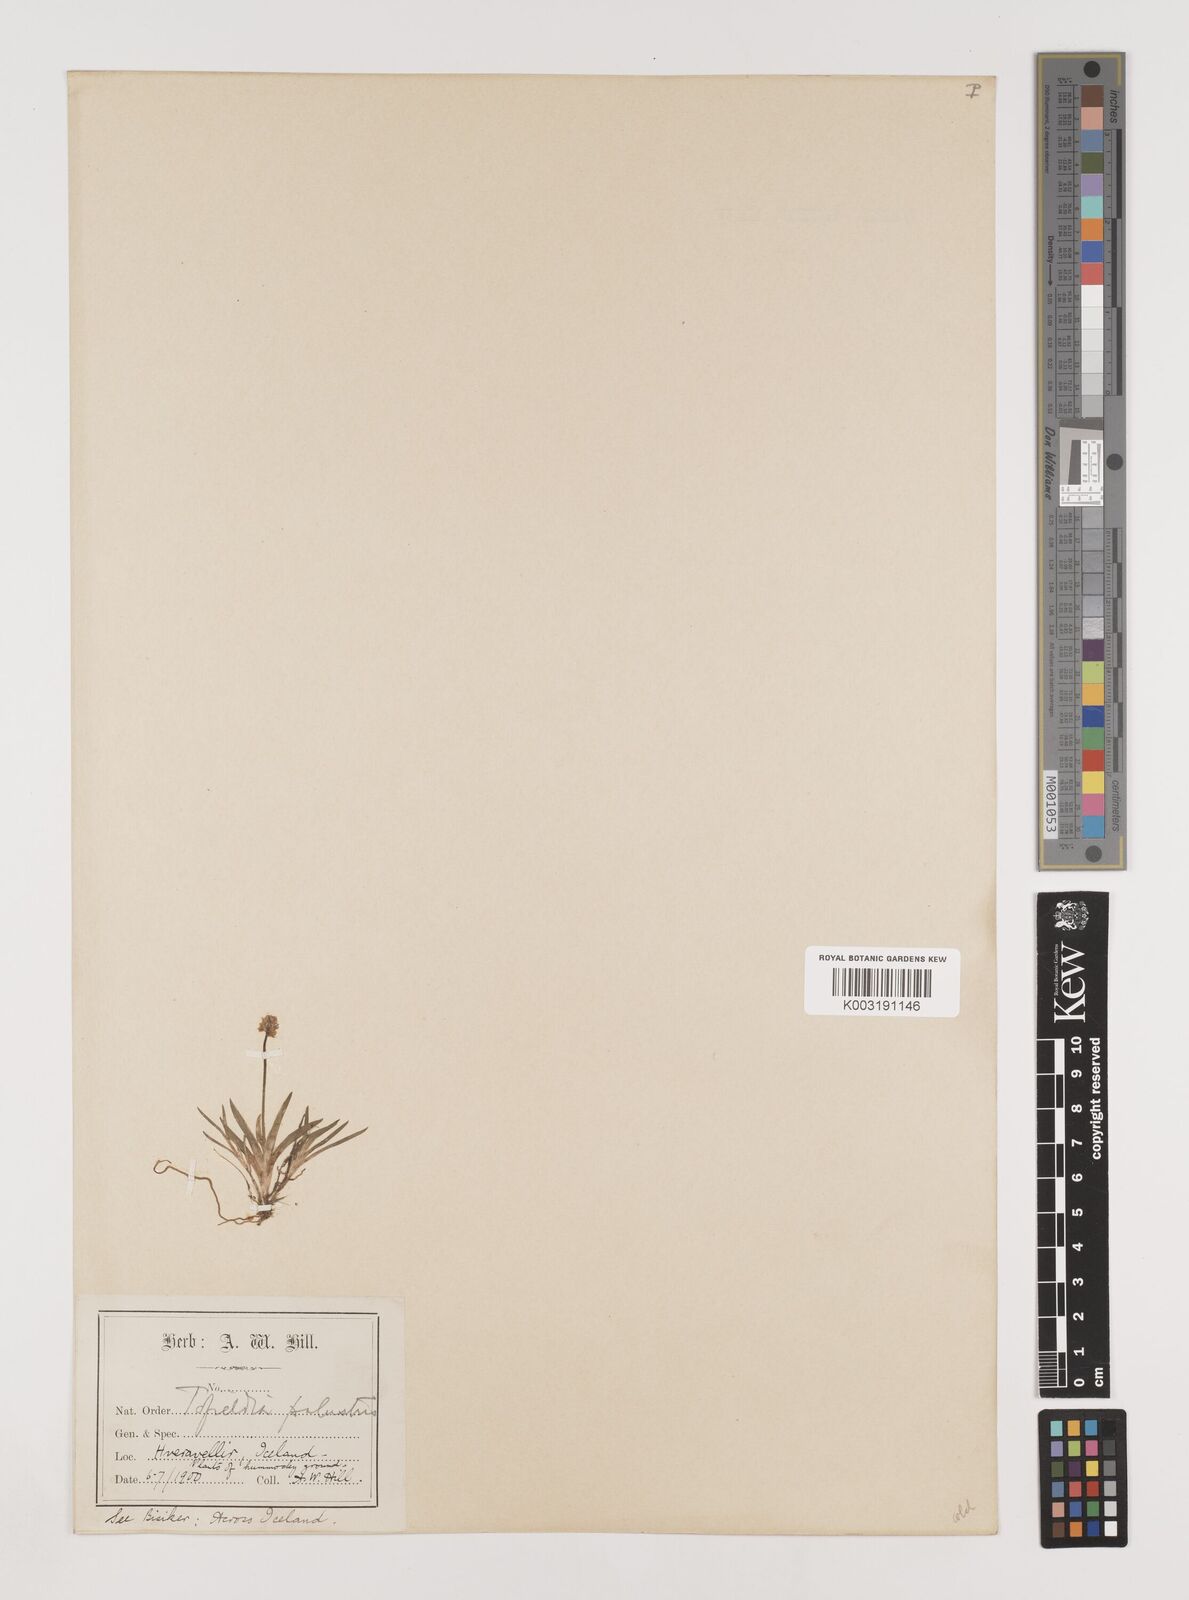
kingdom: Plantae
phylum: Tracheophyta
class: Liliopsida
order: Alismatales
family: Tofieldiaceae
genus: Tofieldia
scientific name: Tofieldia pusilla
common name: Scottish false asphodel
